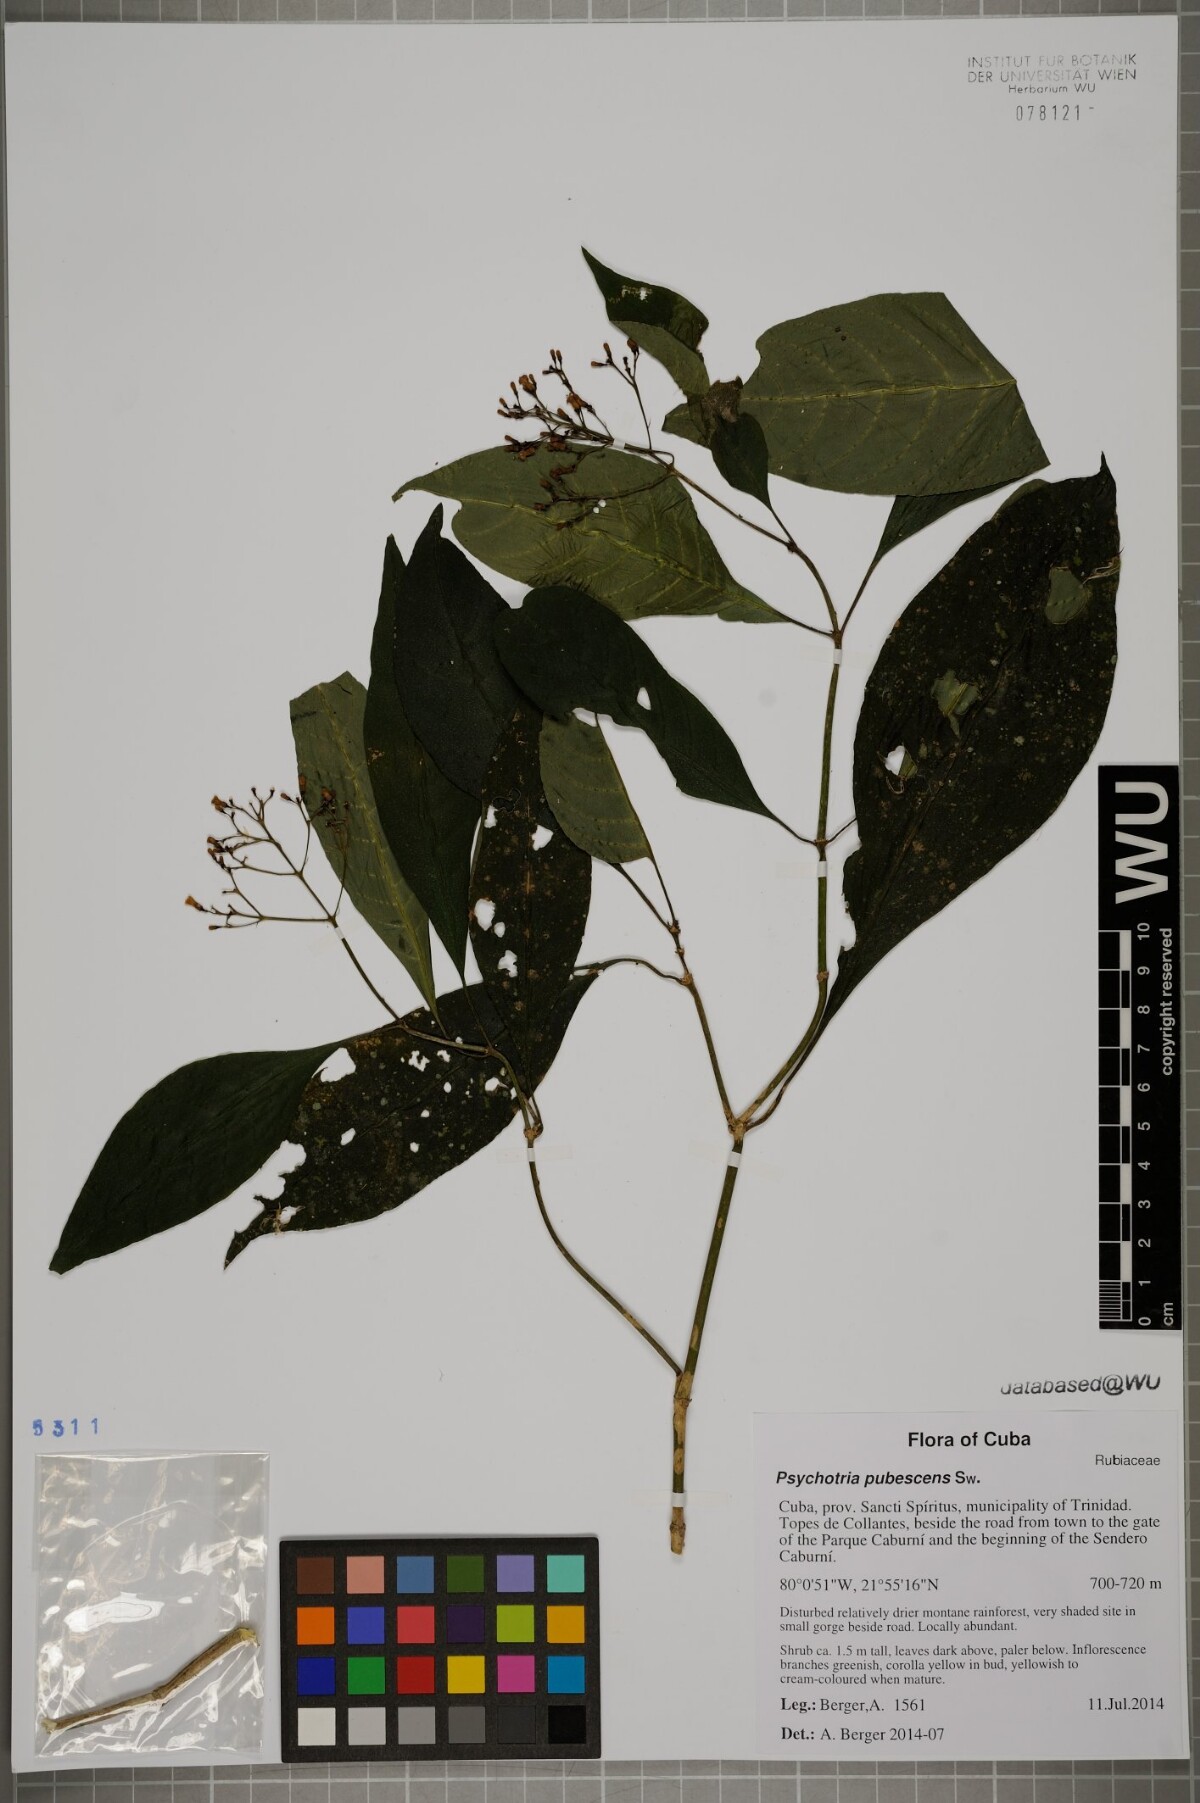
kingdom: Plantae
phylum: Tracheophyta
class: Magnoliopsida
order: Gentianales
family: Rubiaceae
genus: Palicourea
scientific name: Palicourea pubescens
